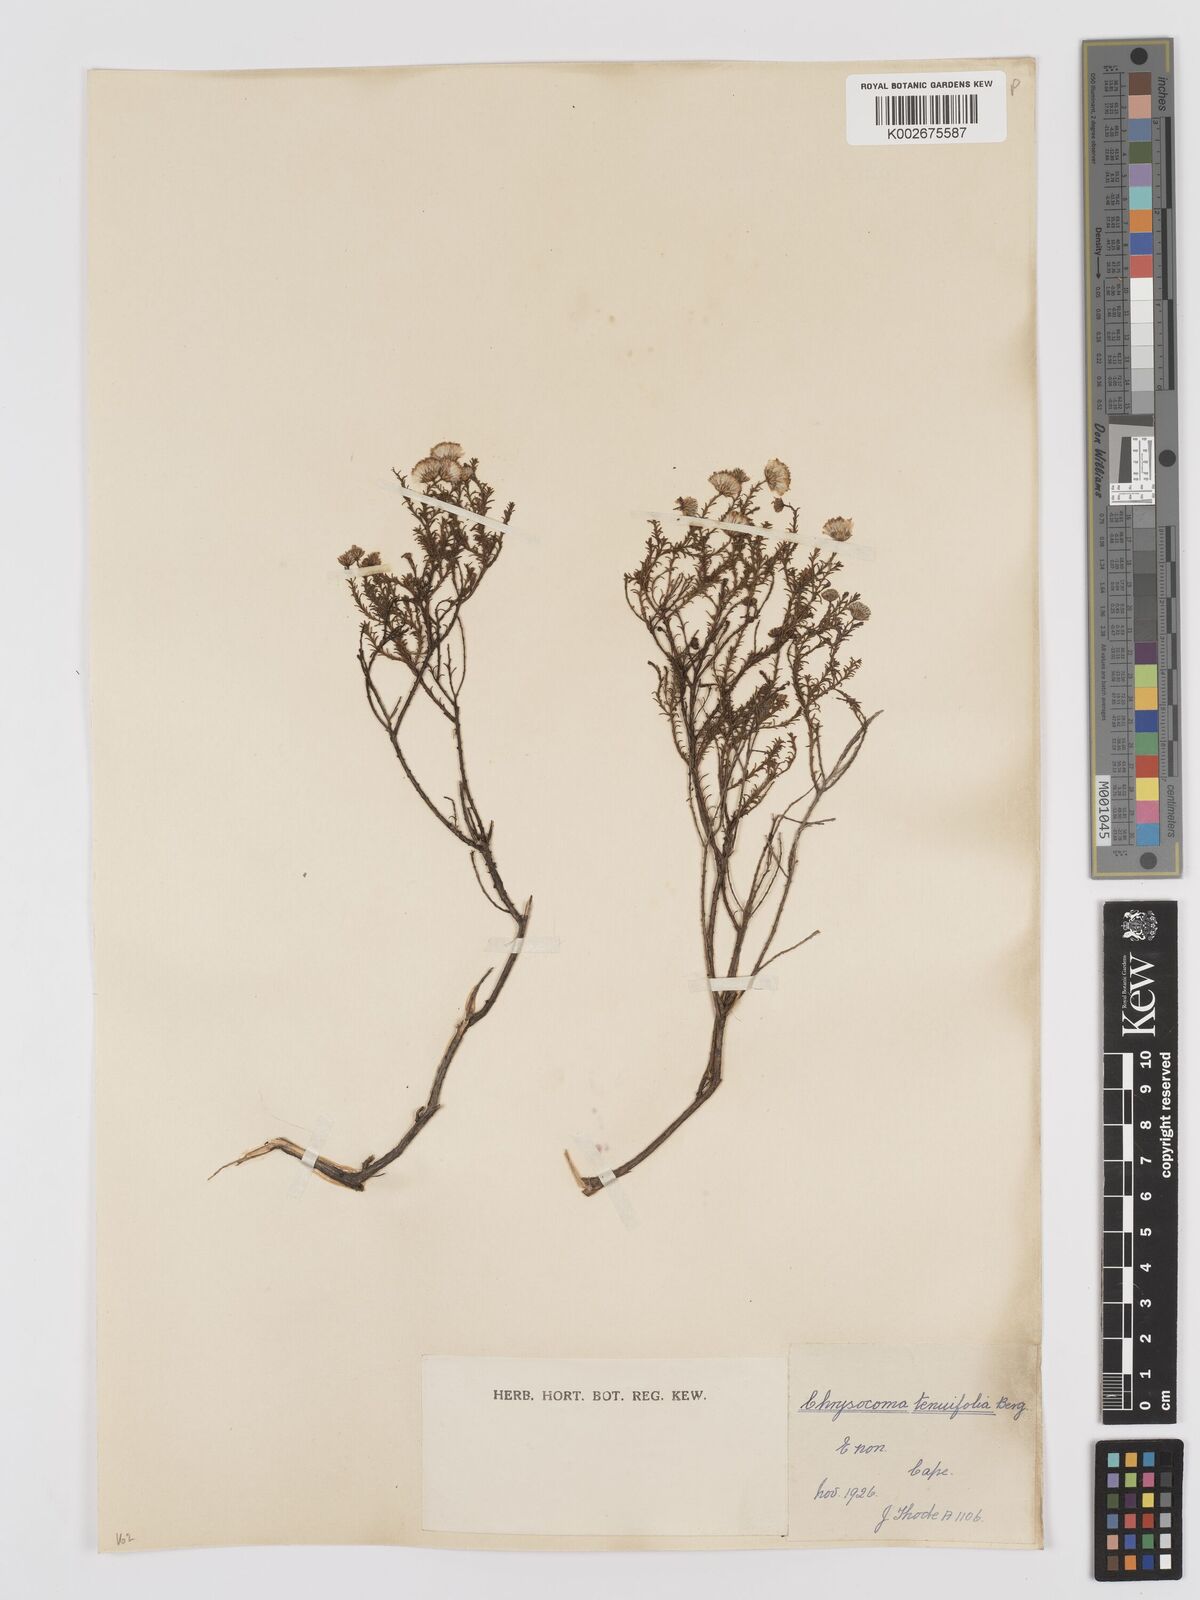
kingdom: Plantae
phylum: Tracheophyta
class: Magnoliopsida
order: Asterales
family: Asteraceae
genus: Chrysocoma
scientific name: Chrysocoma ciliata
